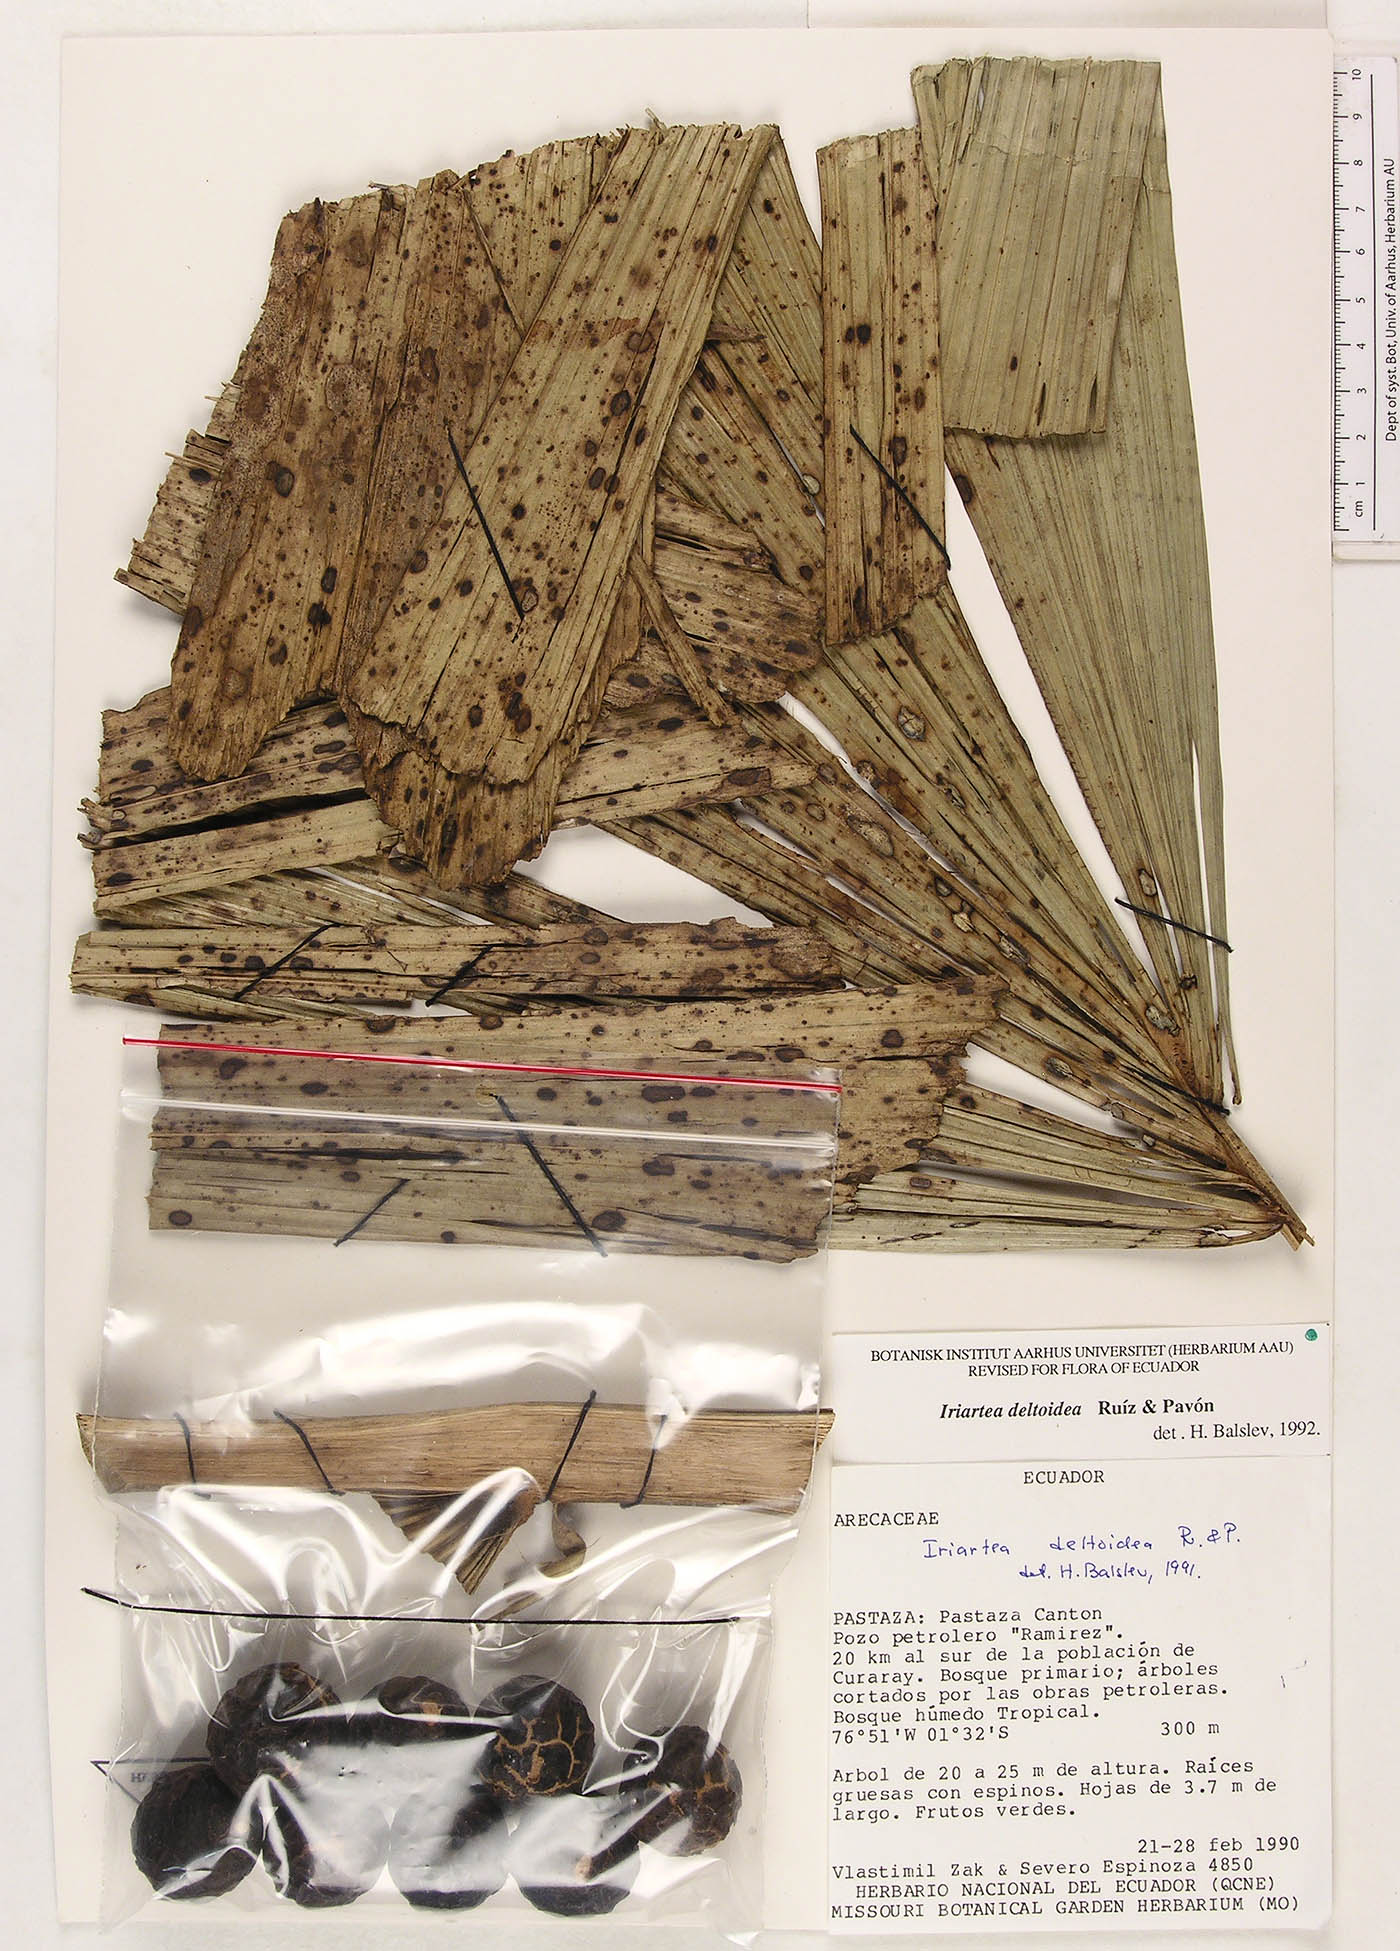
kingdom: Plantae
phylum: Tracheophyta
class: Liliopsida
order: Arecales
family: Arecaceae
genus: Iriartea
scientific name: Iriartea deltoidea
